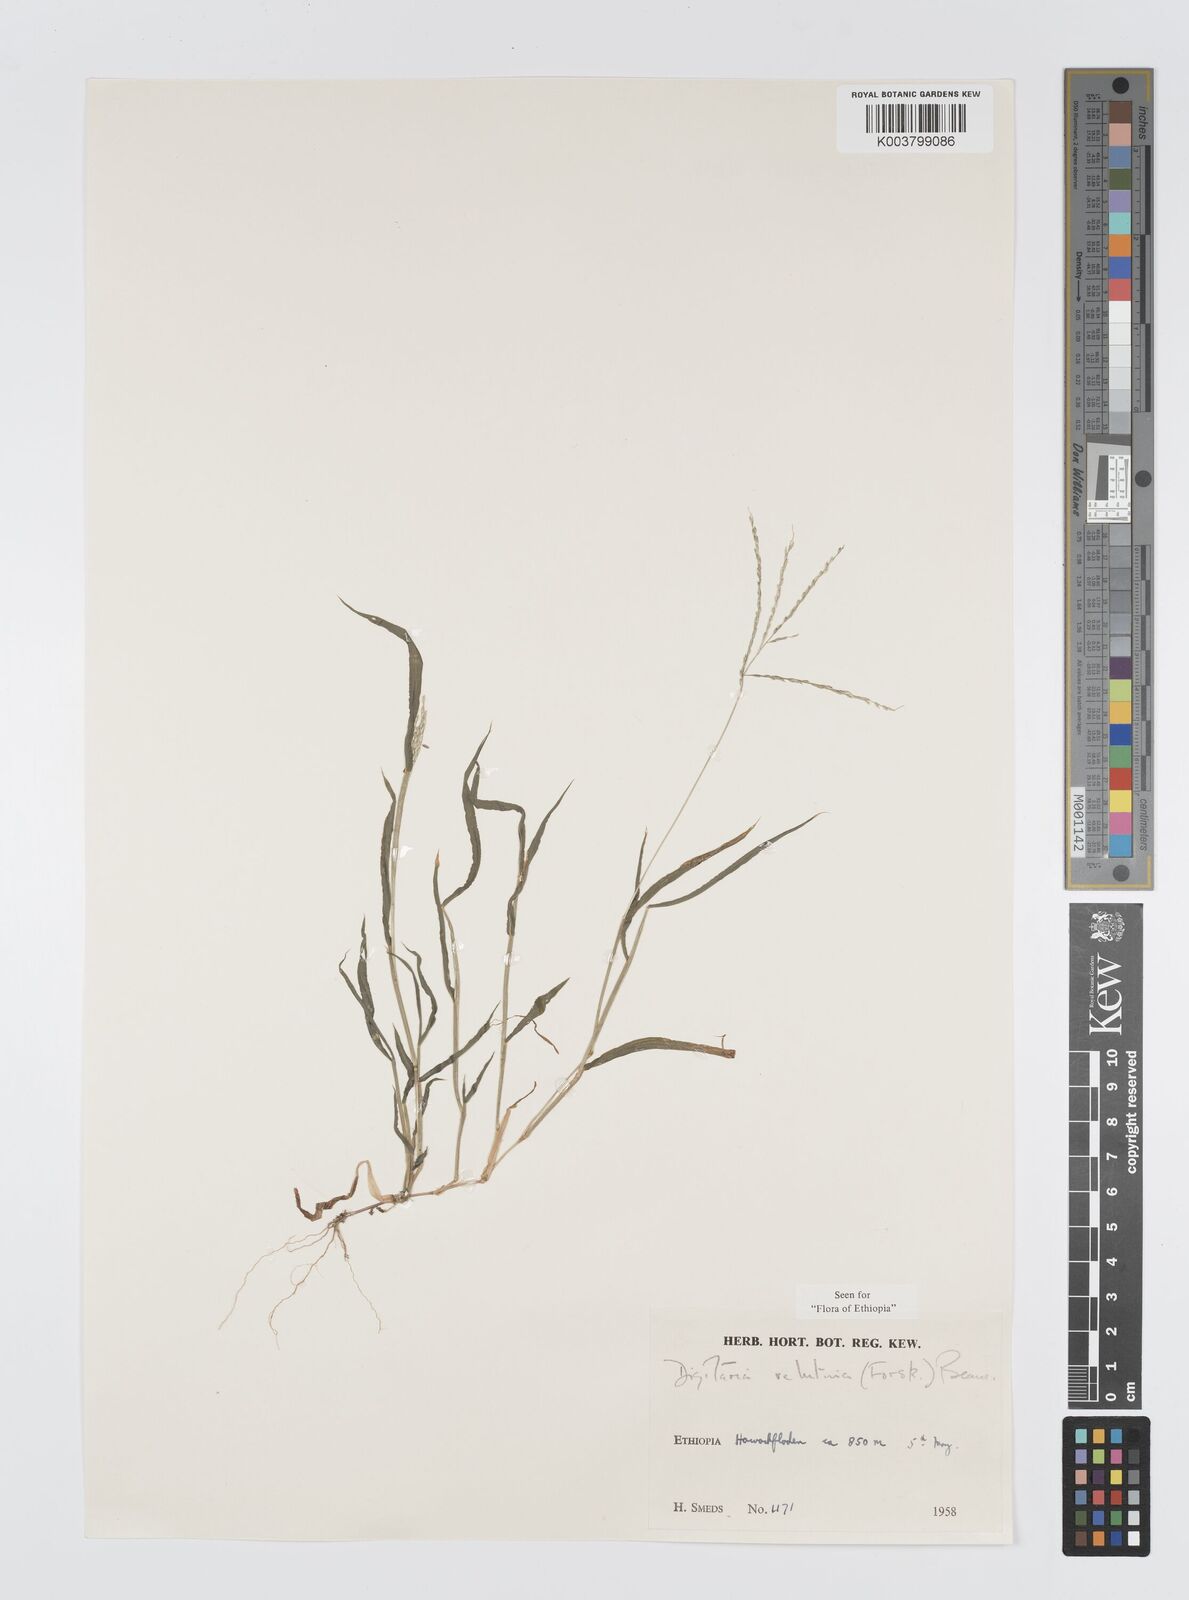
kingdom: Plantae
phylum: Tracheophyta
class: Liliopsida
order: Poales
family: Poaceae
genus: Digitaria
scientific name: Digitaria velutina
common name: Long-plume finger grass
